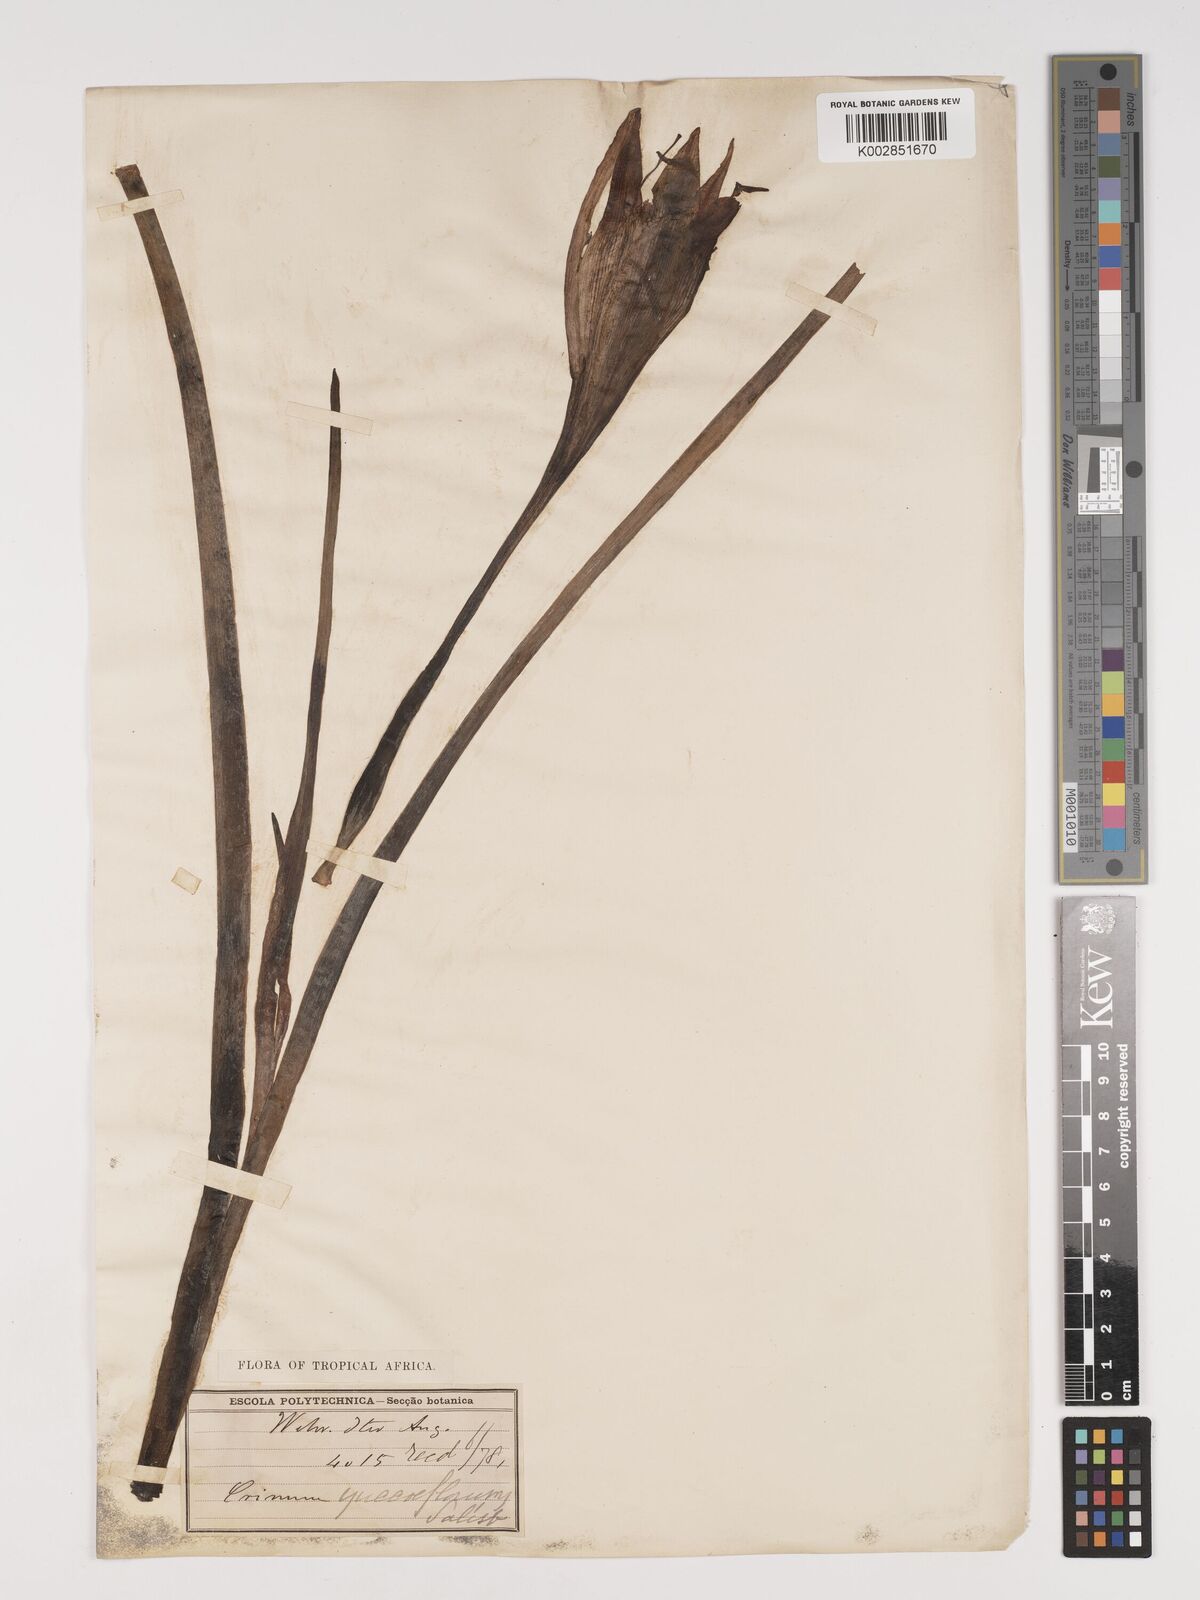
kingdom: Plantae
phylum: Tracheophyta
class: Liliopsida
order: Asparagales
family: Amaryllidaceae
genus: Crinum
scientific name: Crinum
